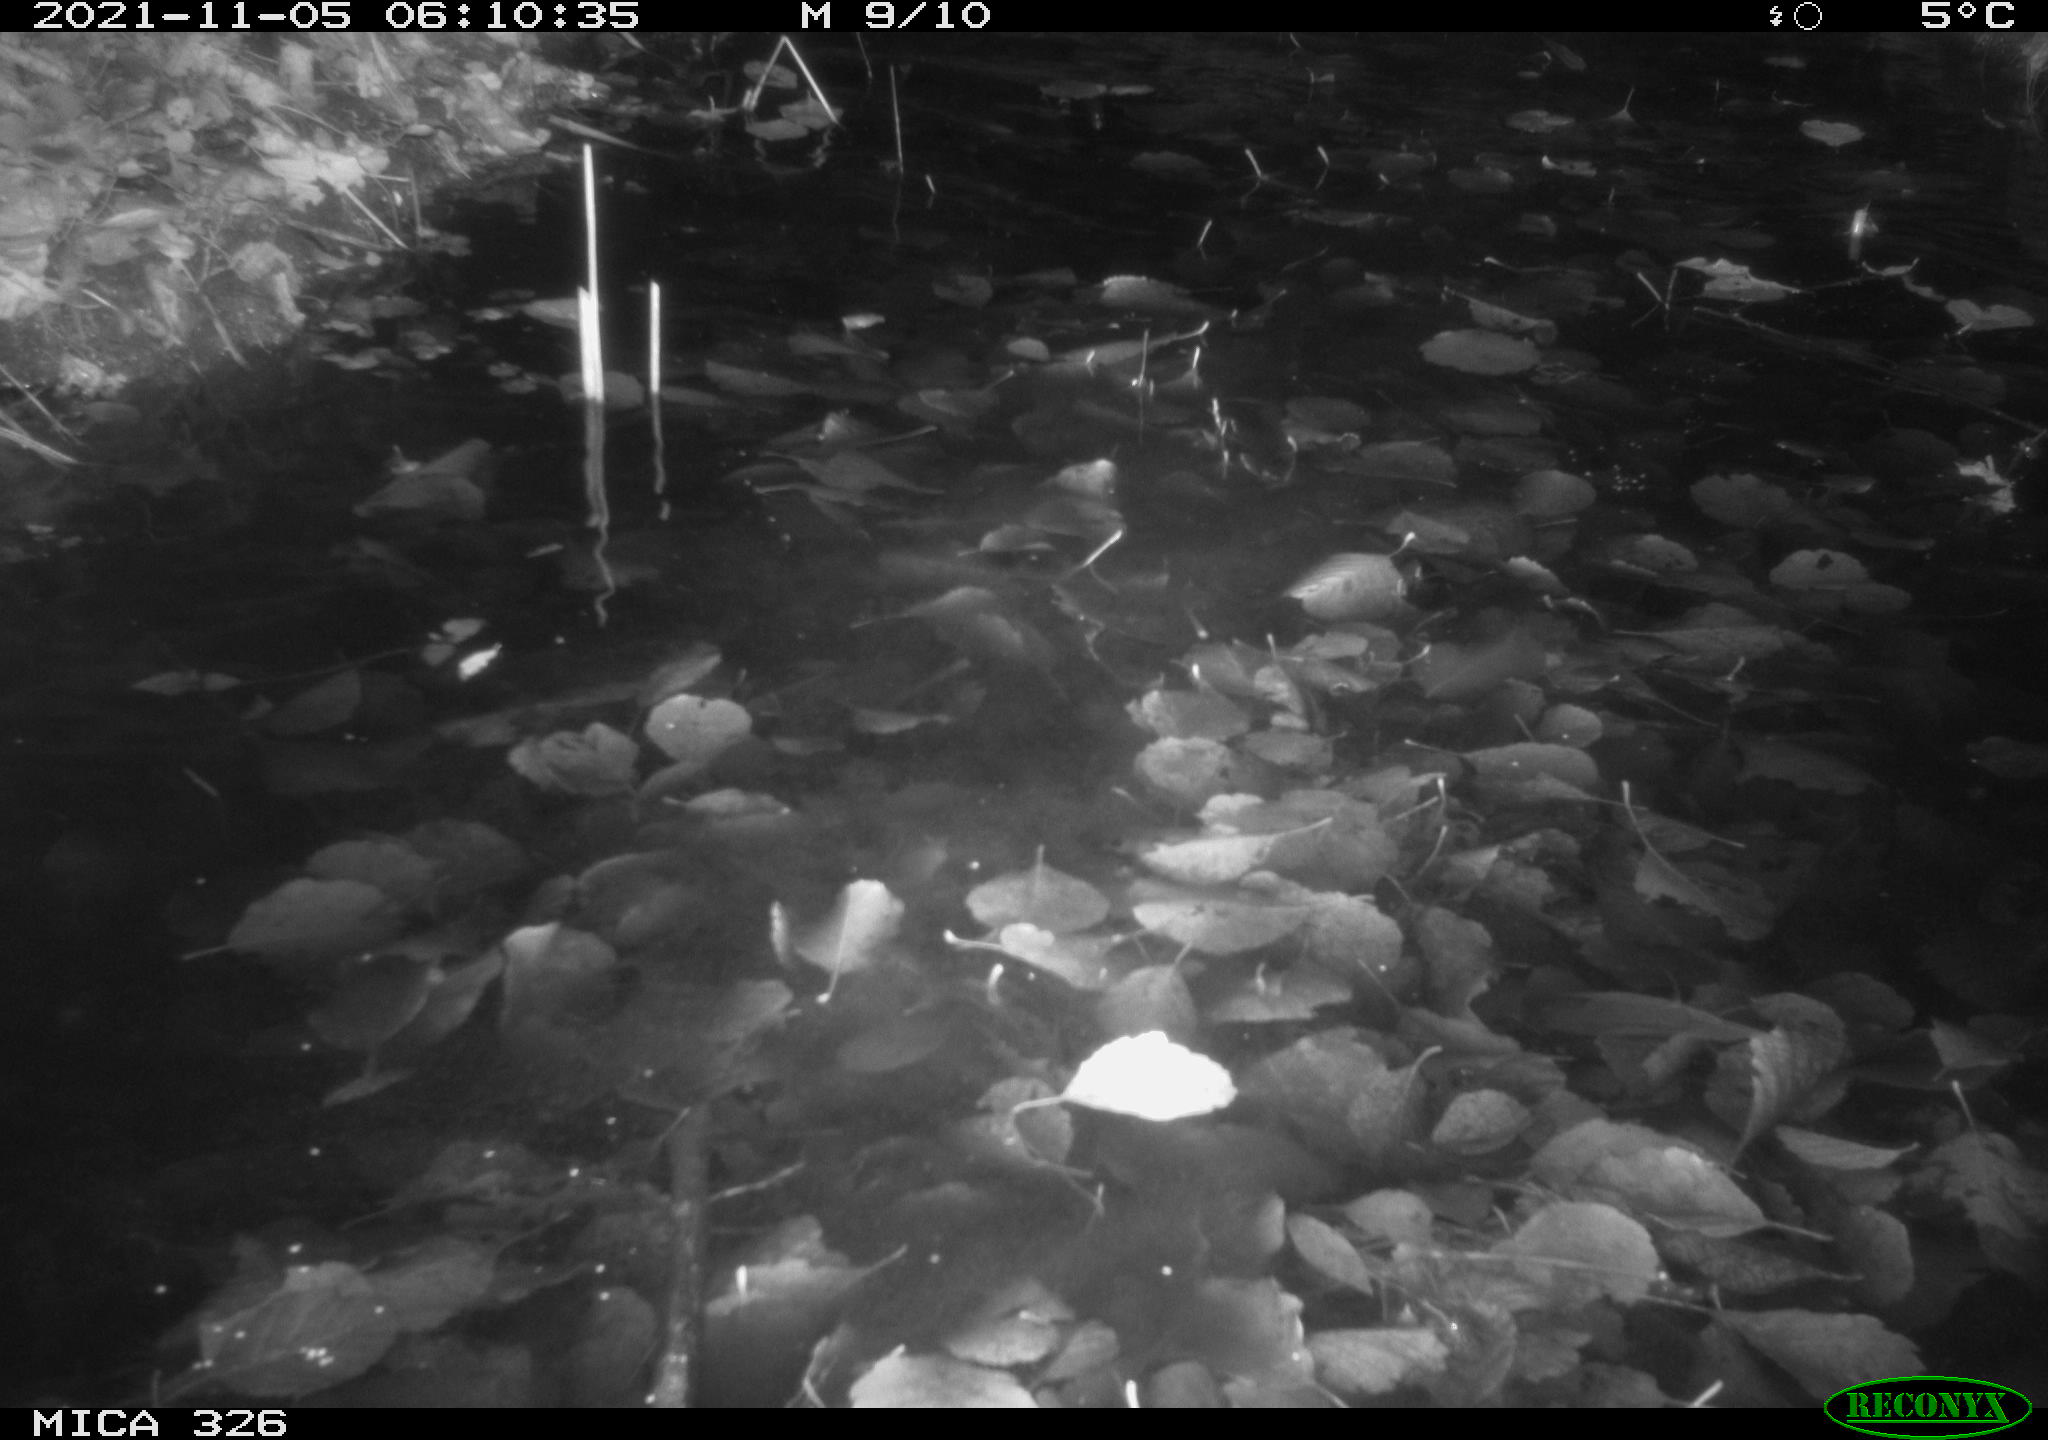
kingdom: Animalia
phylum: Chordata
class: Mammalia
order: Rodentia
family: Myocastoridae
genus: Myocastor
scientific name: Myocastor coypus
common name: Coypu
